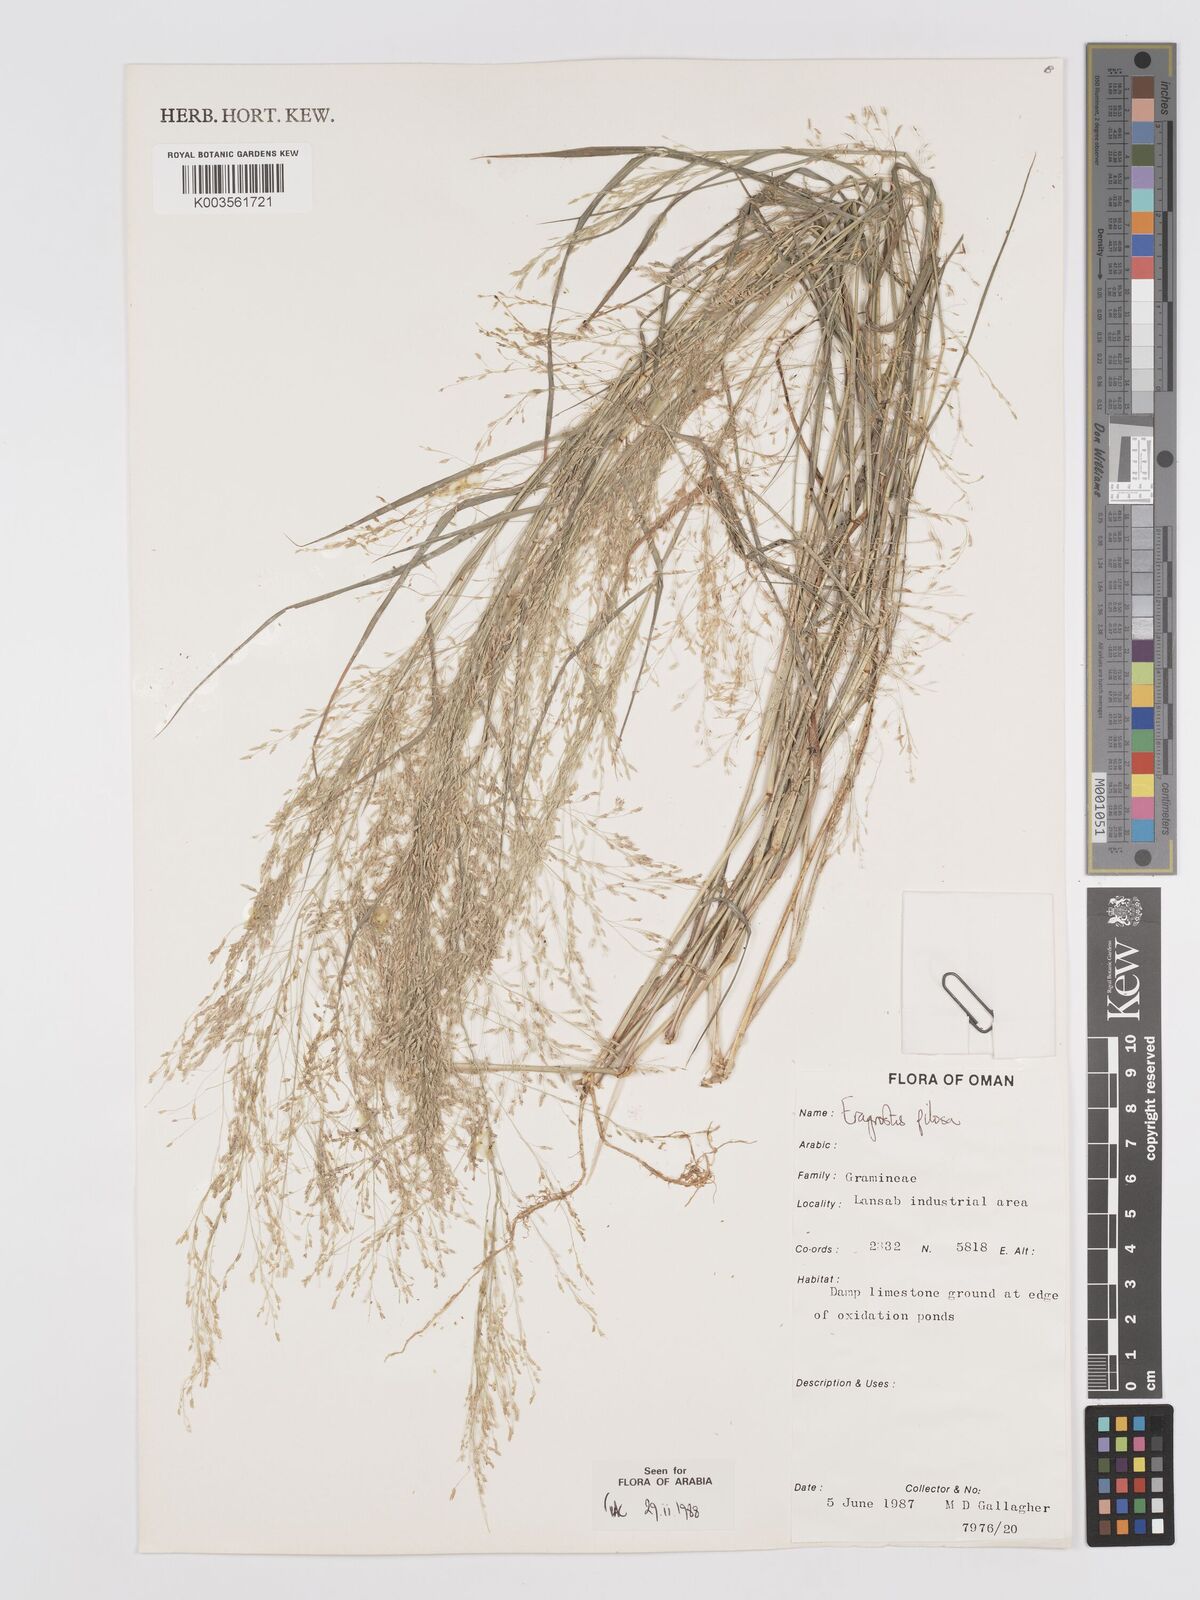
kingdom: Plantae
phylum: Tracheophyta
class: Liliopsida
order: Poales
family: Poaceae
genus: Eragrostis
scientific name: Eragrostis pilosa
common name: Indian lovegrass
